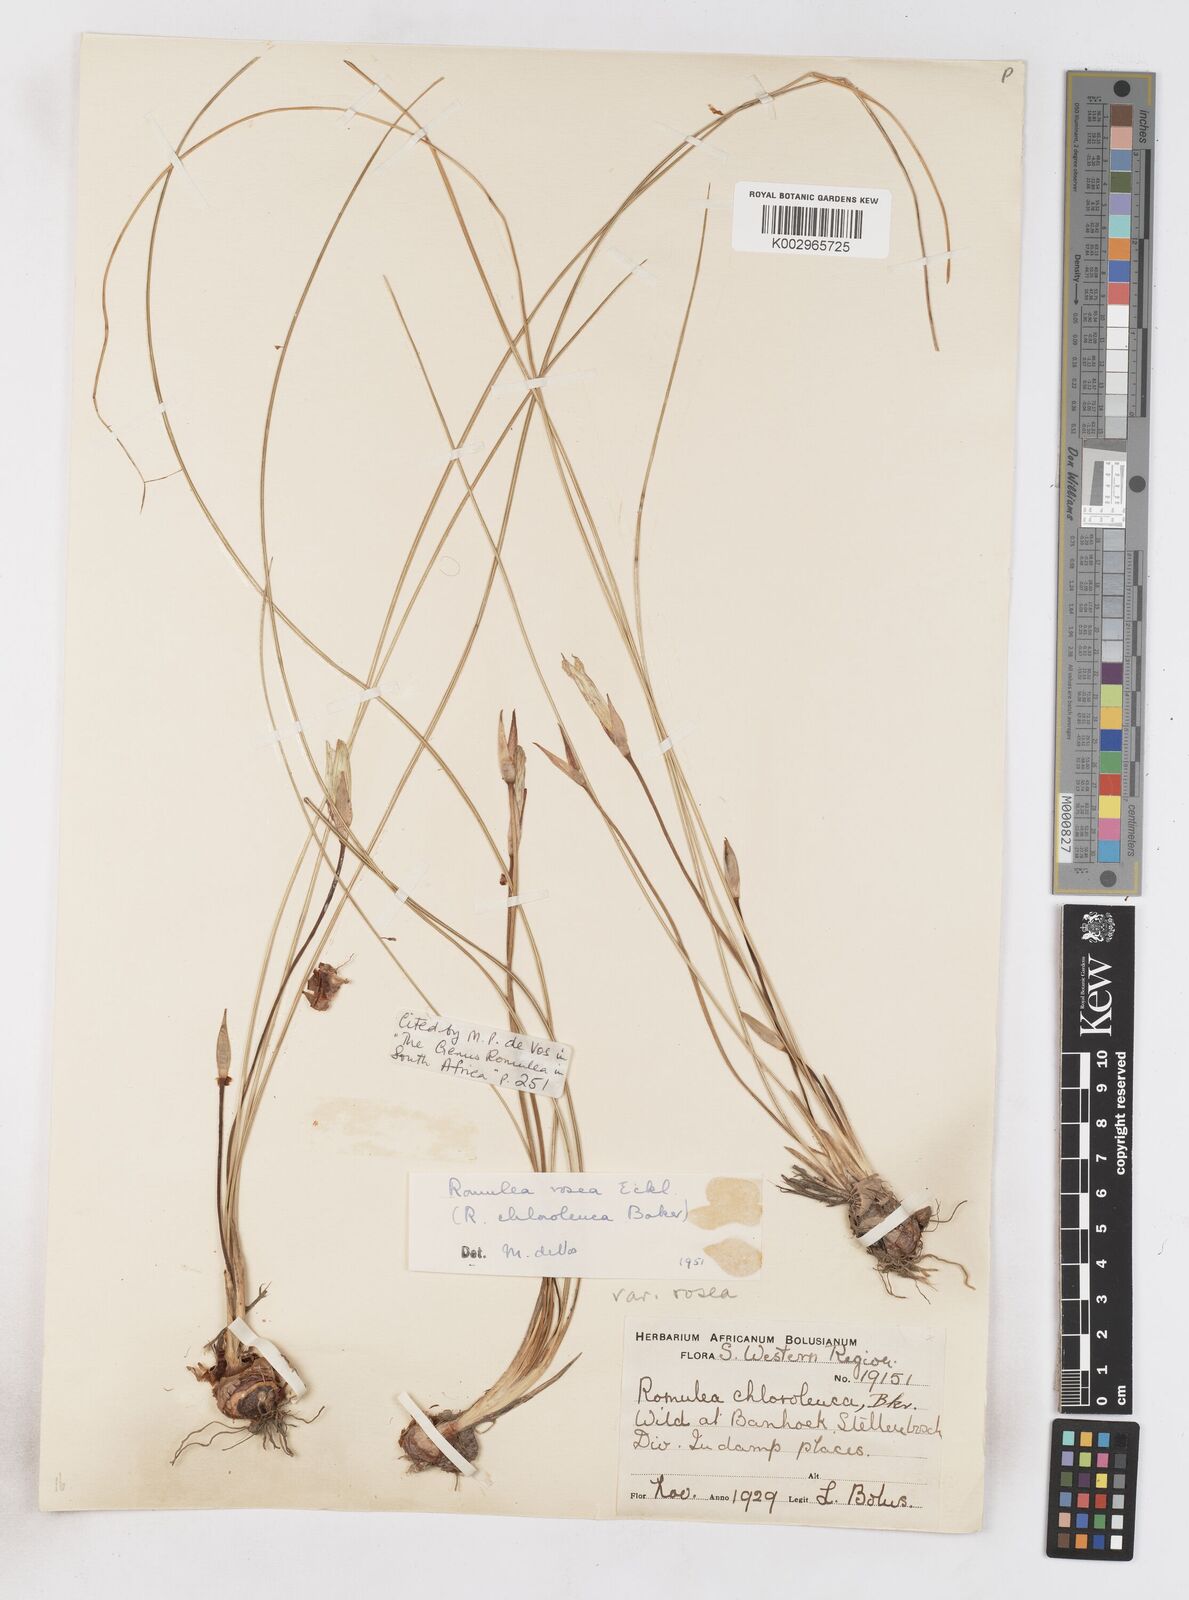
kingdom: Plantae
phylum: Tracheophyta
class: Liliopsida
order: Asparagales
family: Iridaceae
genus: Romulea
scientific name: Romulea rosea
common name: Oniongrass
